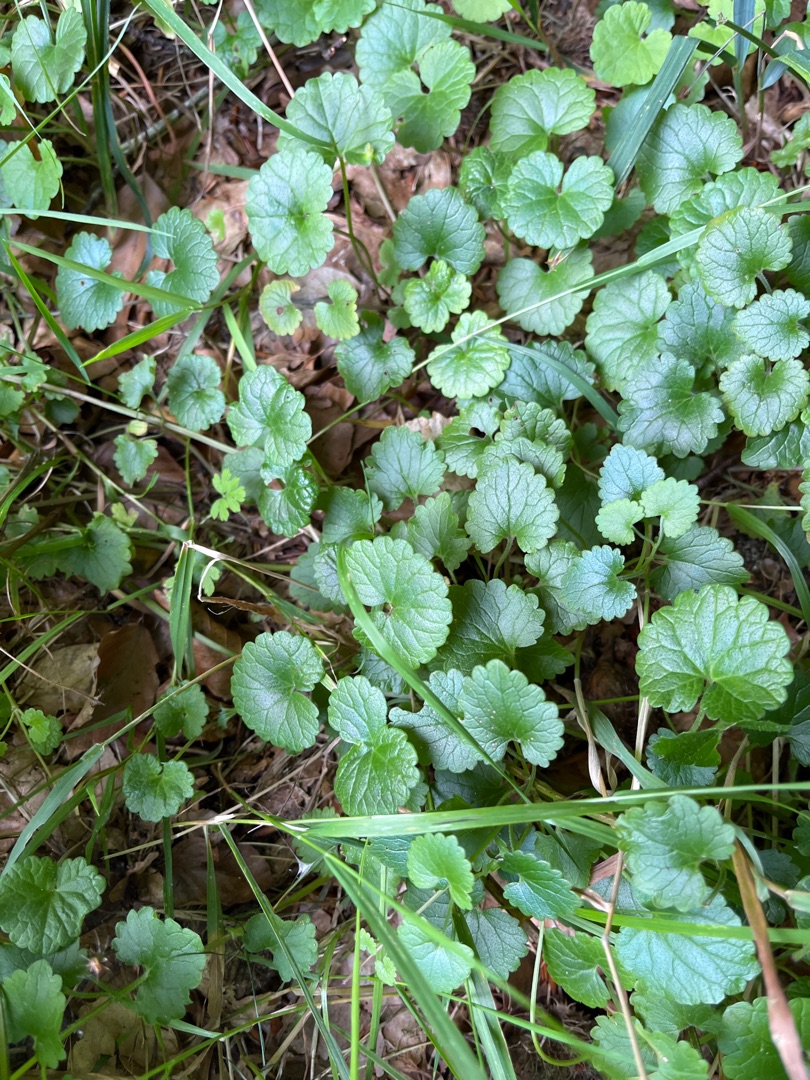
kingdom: Plantae
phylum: Tracheophyta
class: Magnoliopsida
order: Lamiales
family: Lamiaceae
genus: Glechoma
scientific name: Glechoma hederacea
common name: Korsknap
